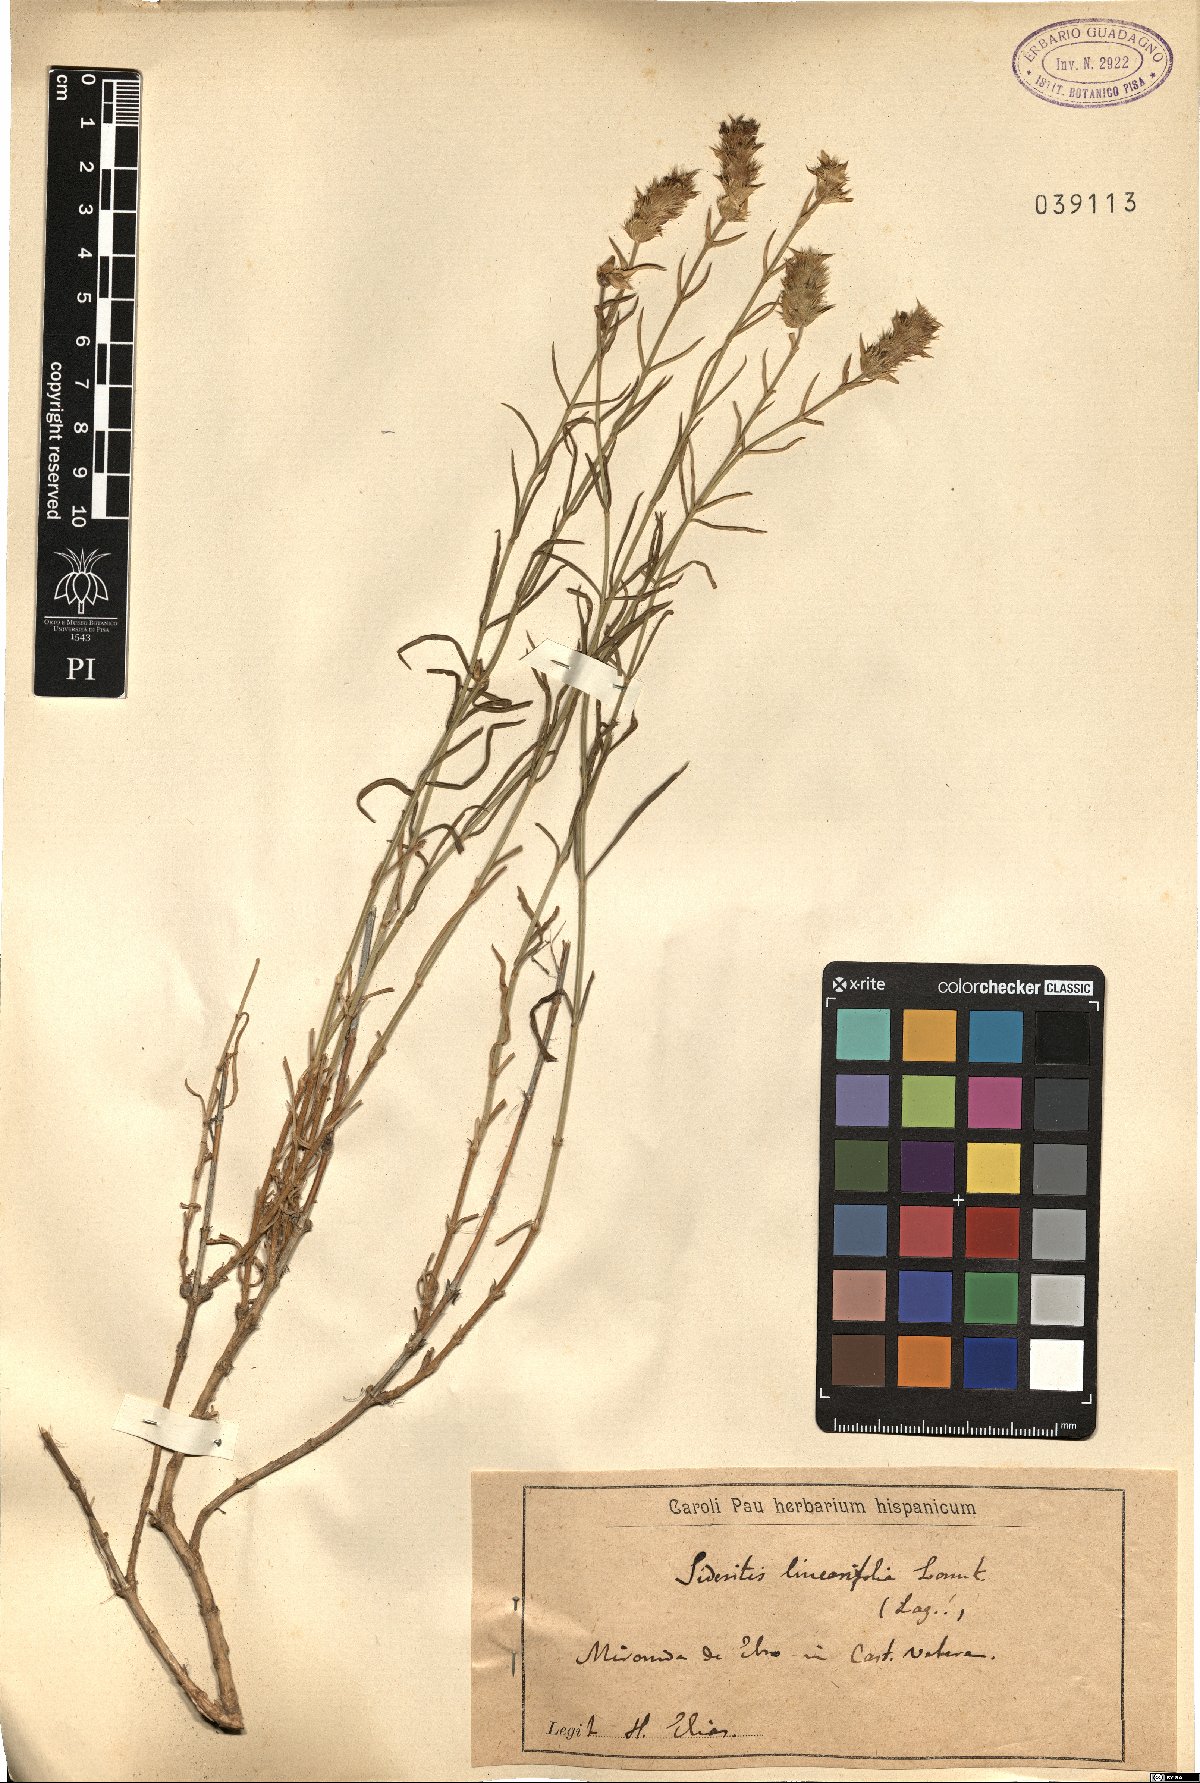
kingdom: Plantae
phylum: Tracheophyta
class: Magnoliopsida
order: Lamiales
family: Lamiaceae
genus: Sideritis
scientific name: Sideritis linearifolia
